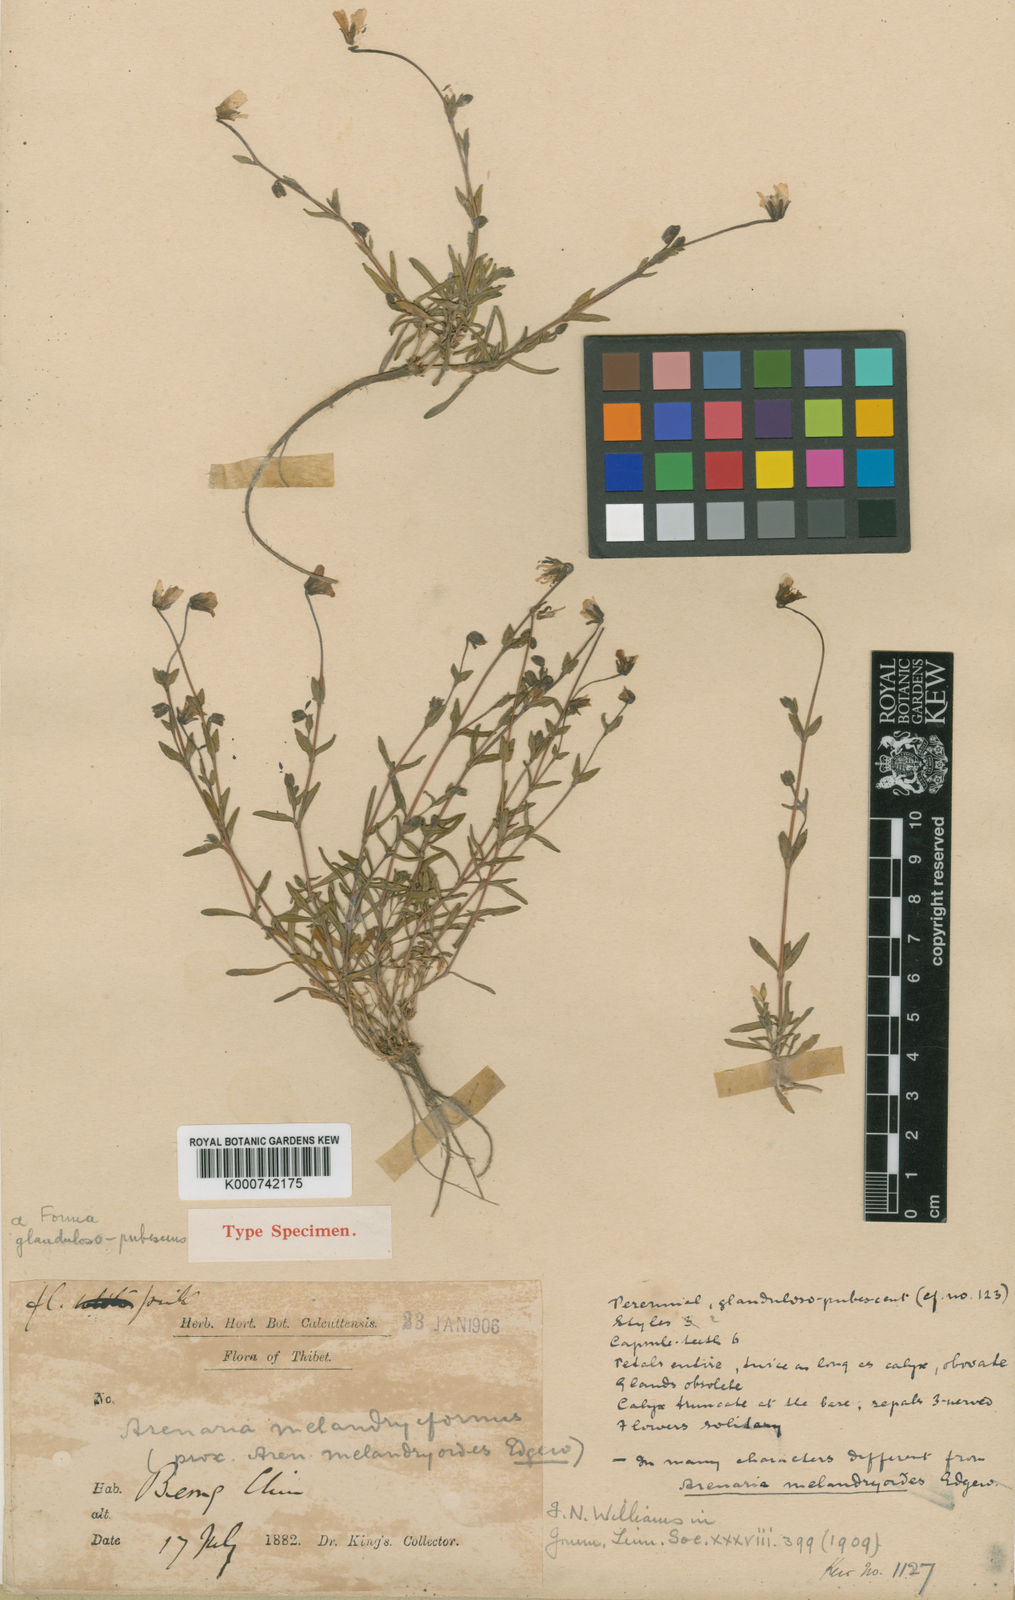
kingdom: Plantae
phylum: Tracheophyta
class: Magnoliopsida
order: Caryophyllales
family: Caryophyllaceae
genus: Shivparvatia
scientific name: Shivparvatia melandryiformis
